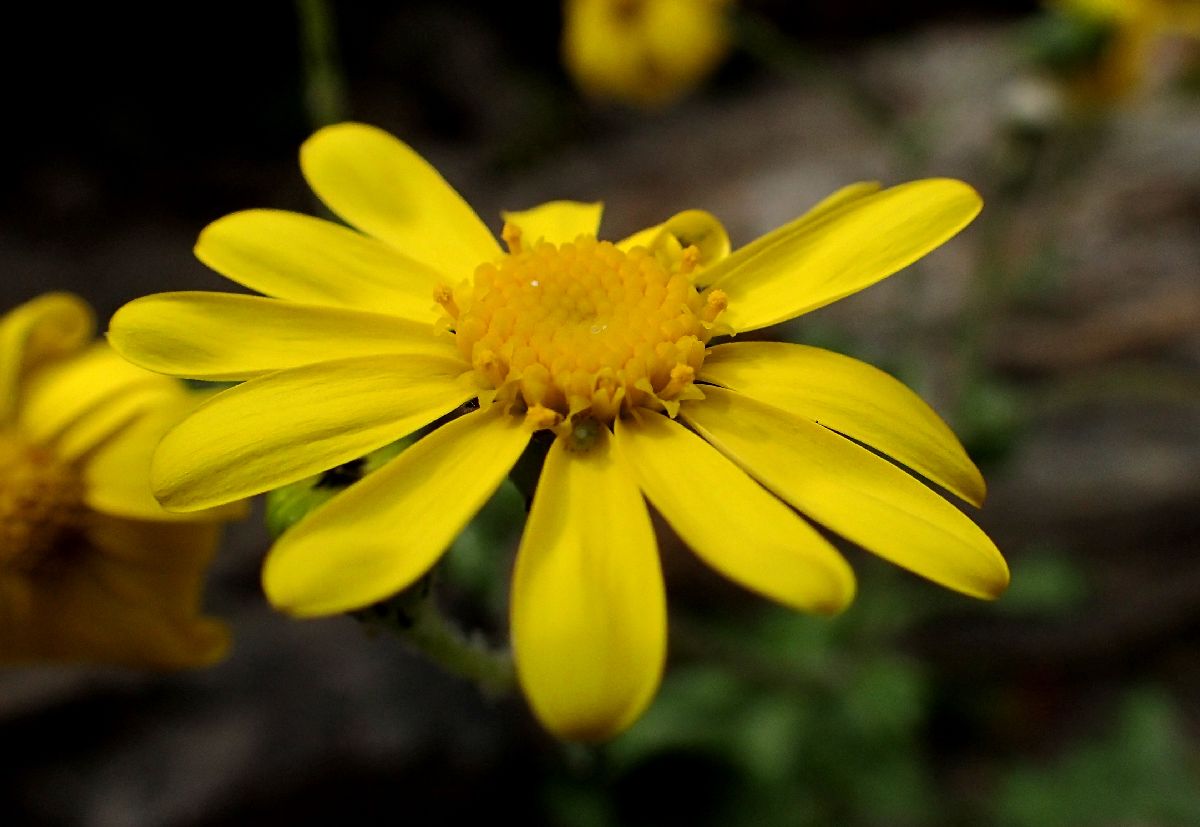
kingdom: Plantae
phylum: Tracheophyta
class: Magnoliopsida
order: Asterales
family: Asteraceae
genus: Senecio
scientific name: Senecio vernalis
